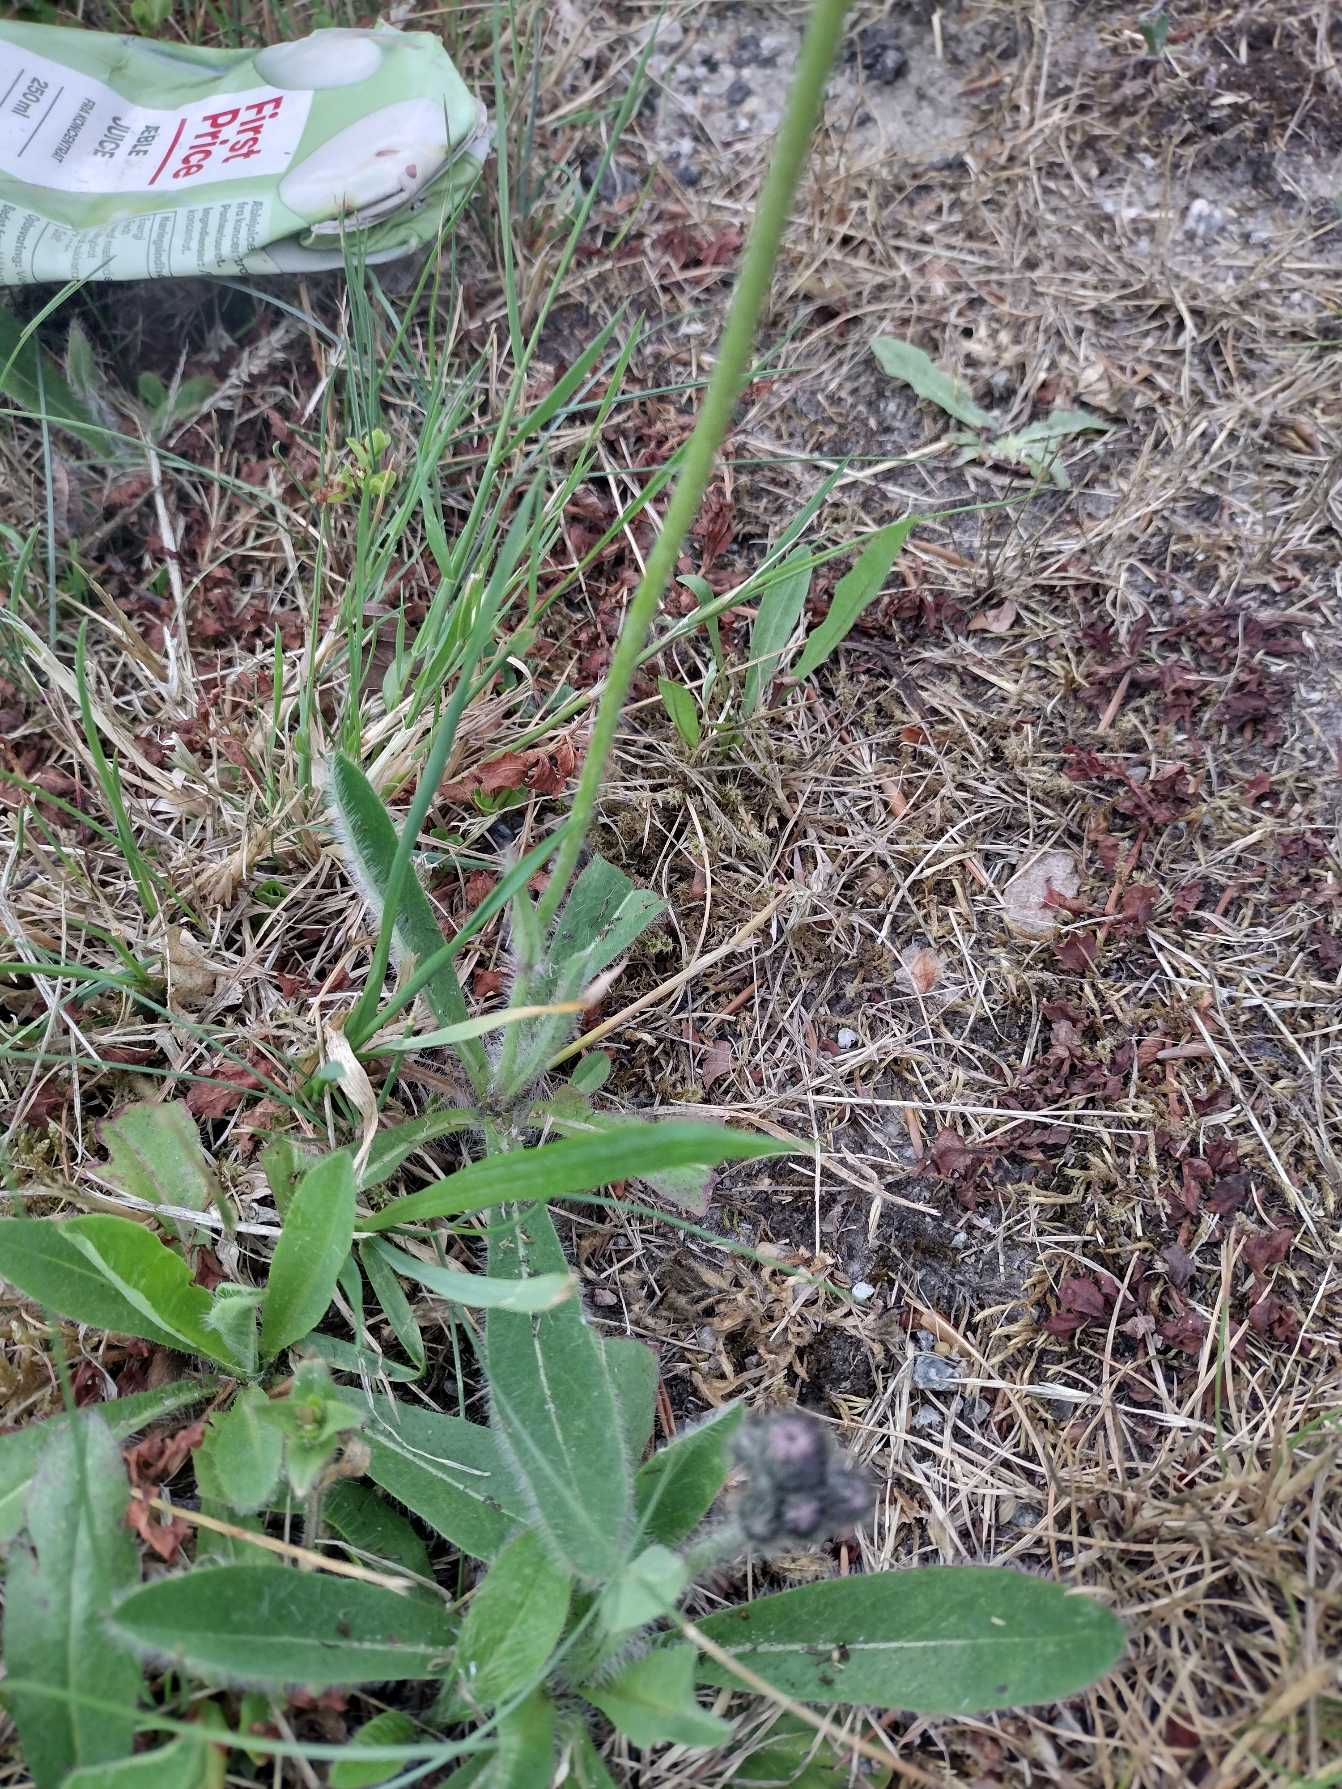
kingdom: Plantae
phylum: Tracheophyta
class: Magnoliopsida
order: Asterales
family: Asteraceae
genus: Pilosella
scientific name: Pilosella aurantiaca
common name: Pomerans-høgeurt
